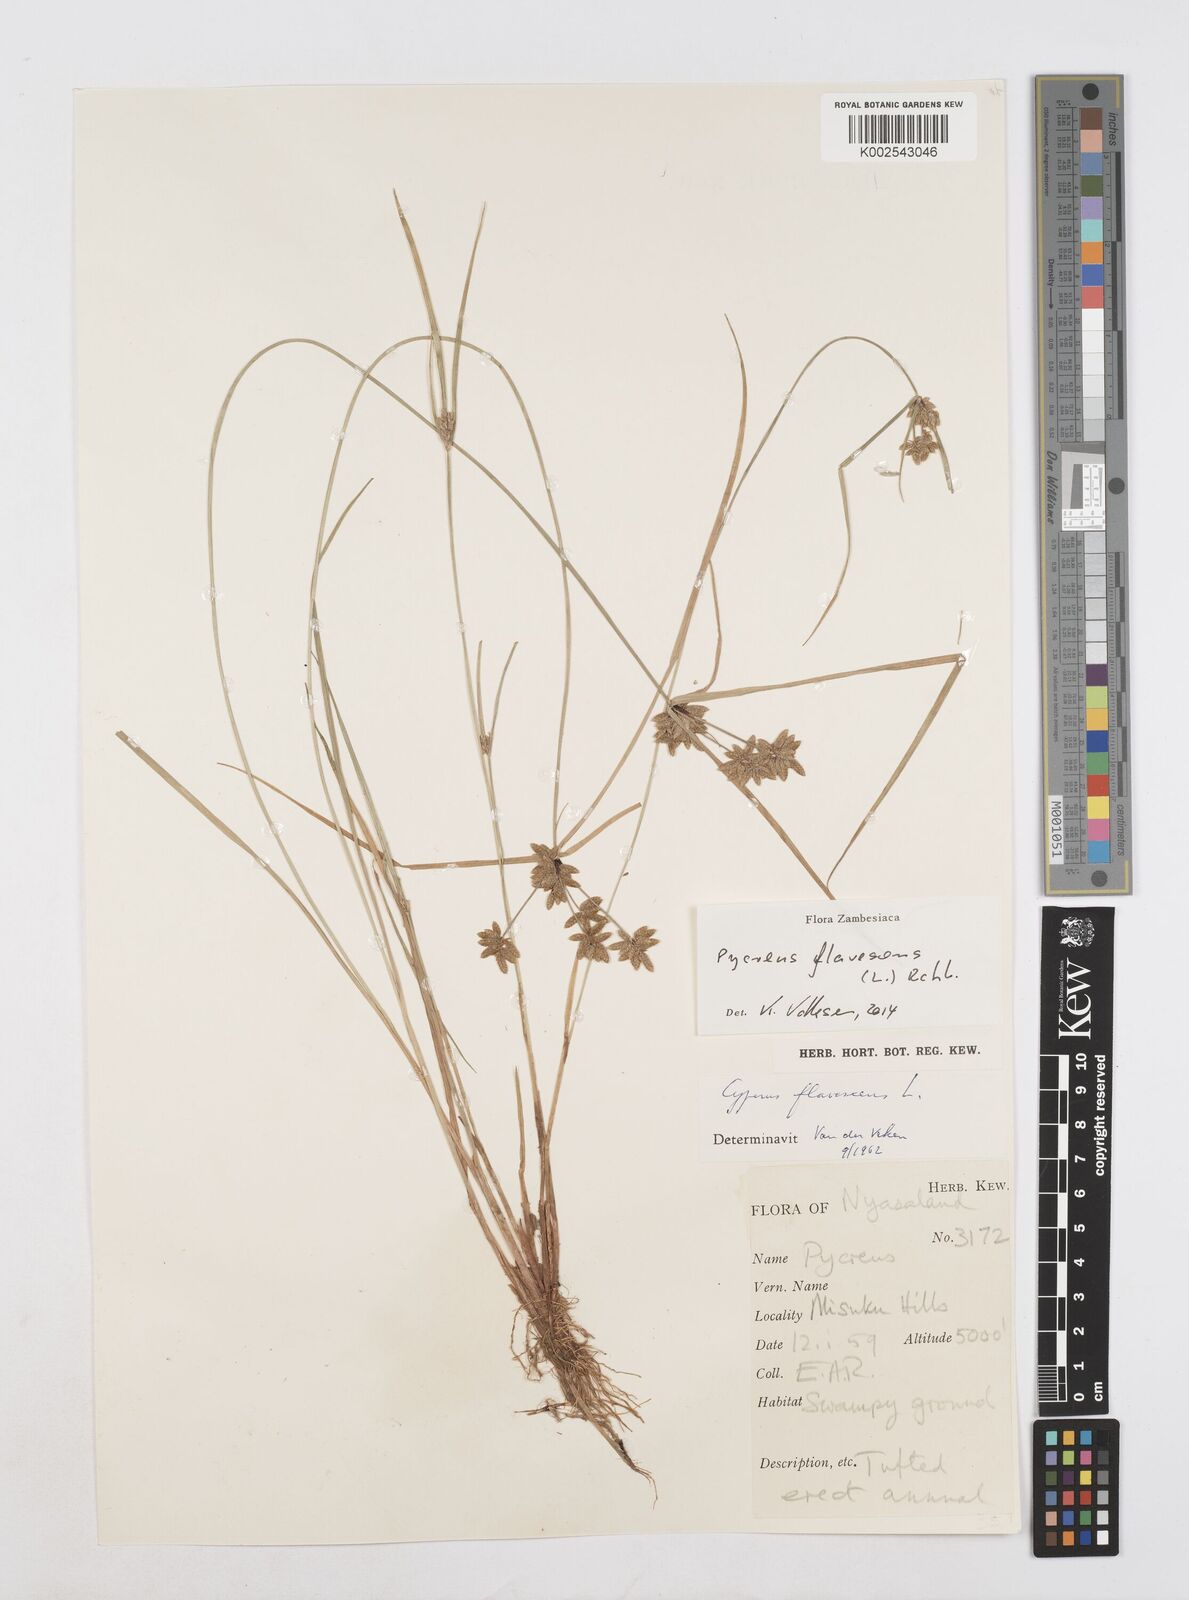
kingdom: Plantae
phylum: Tracheophyta
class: Liliopsida
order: Poales
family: Cyperaceae
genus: Cyperus
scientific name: Cyperus flavescens
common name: Yellow galingale
